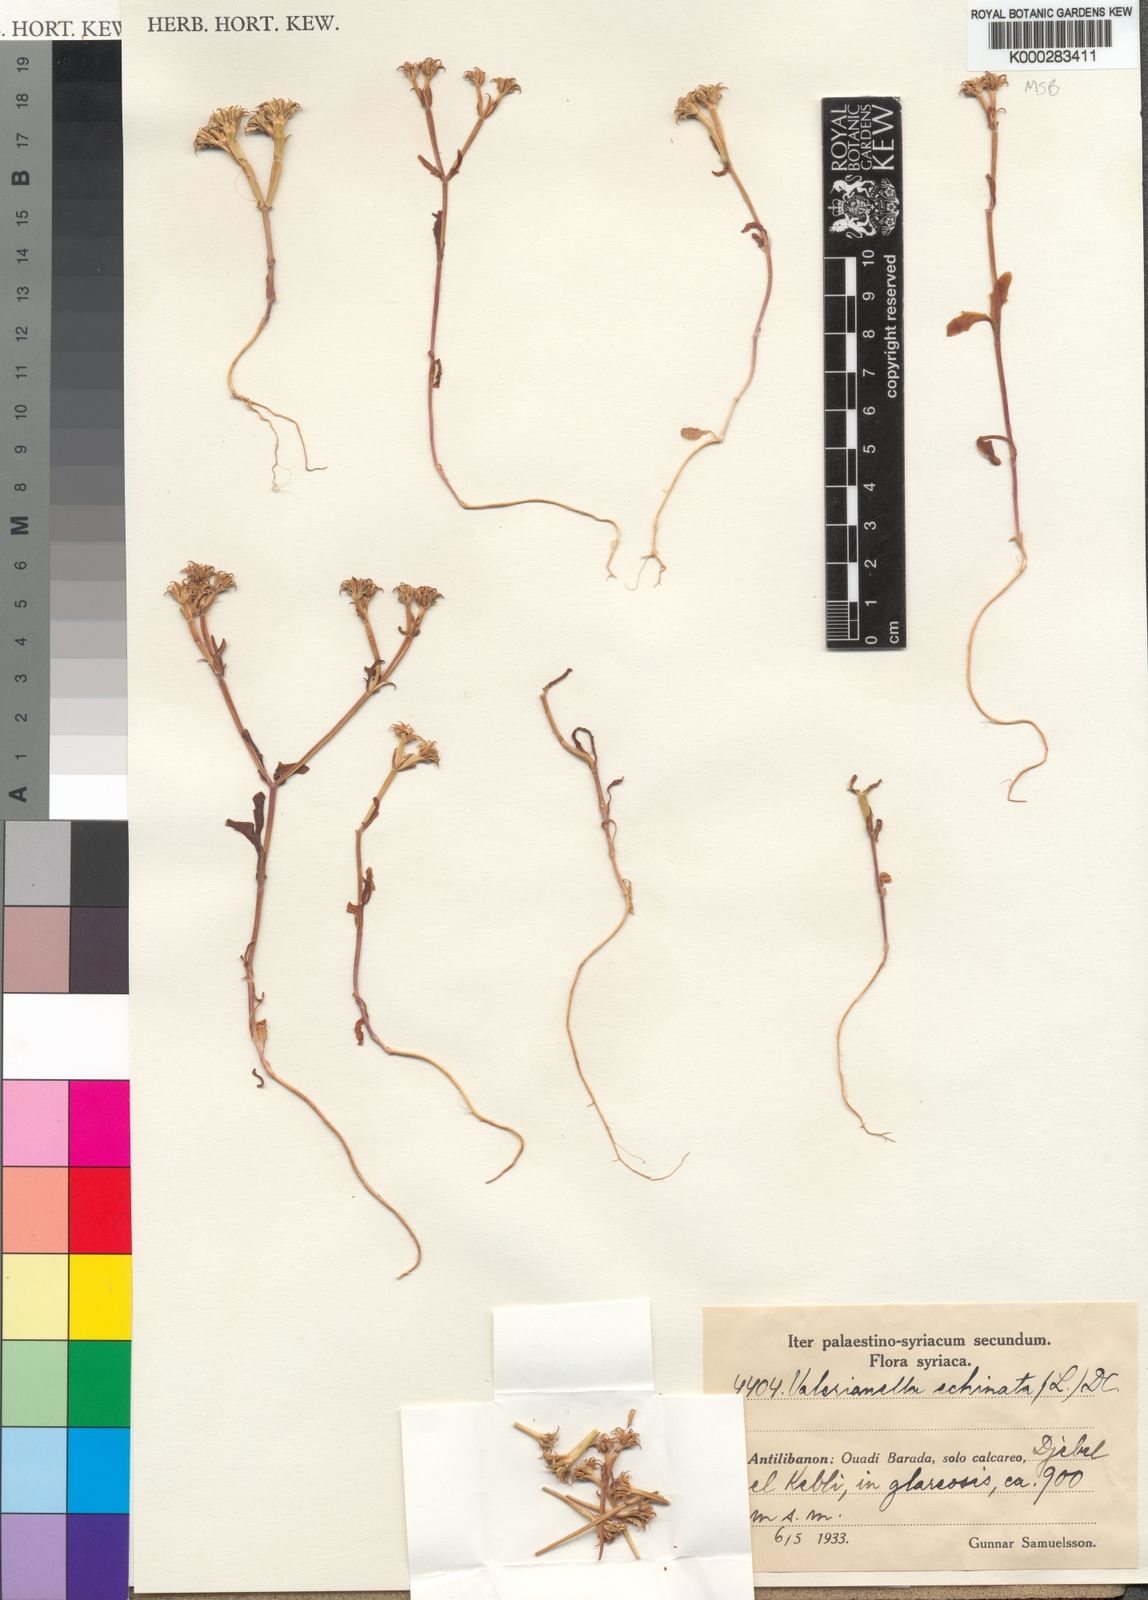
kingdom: Plantae
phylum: Tracheophyta
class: Magnoliopsida
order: Dipsacales
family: Caprifoliaceae
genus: Valerianella
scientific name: Valerianella echinata
